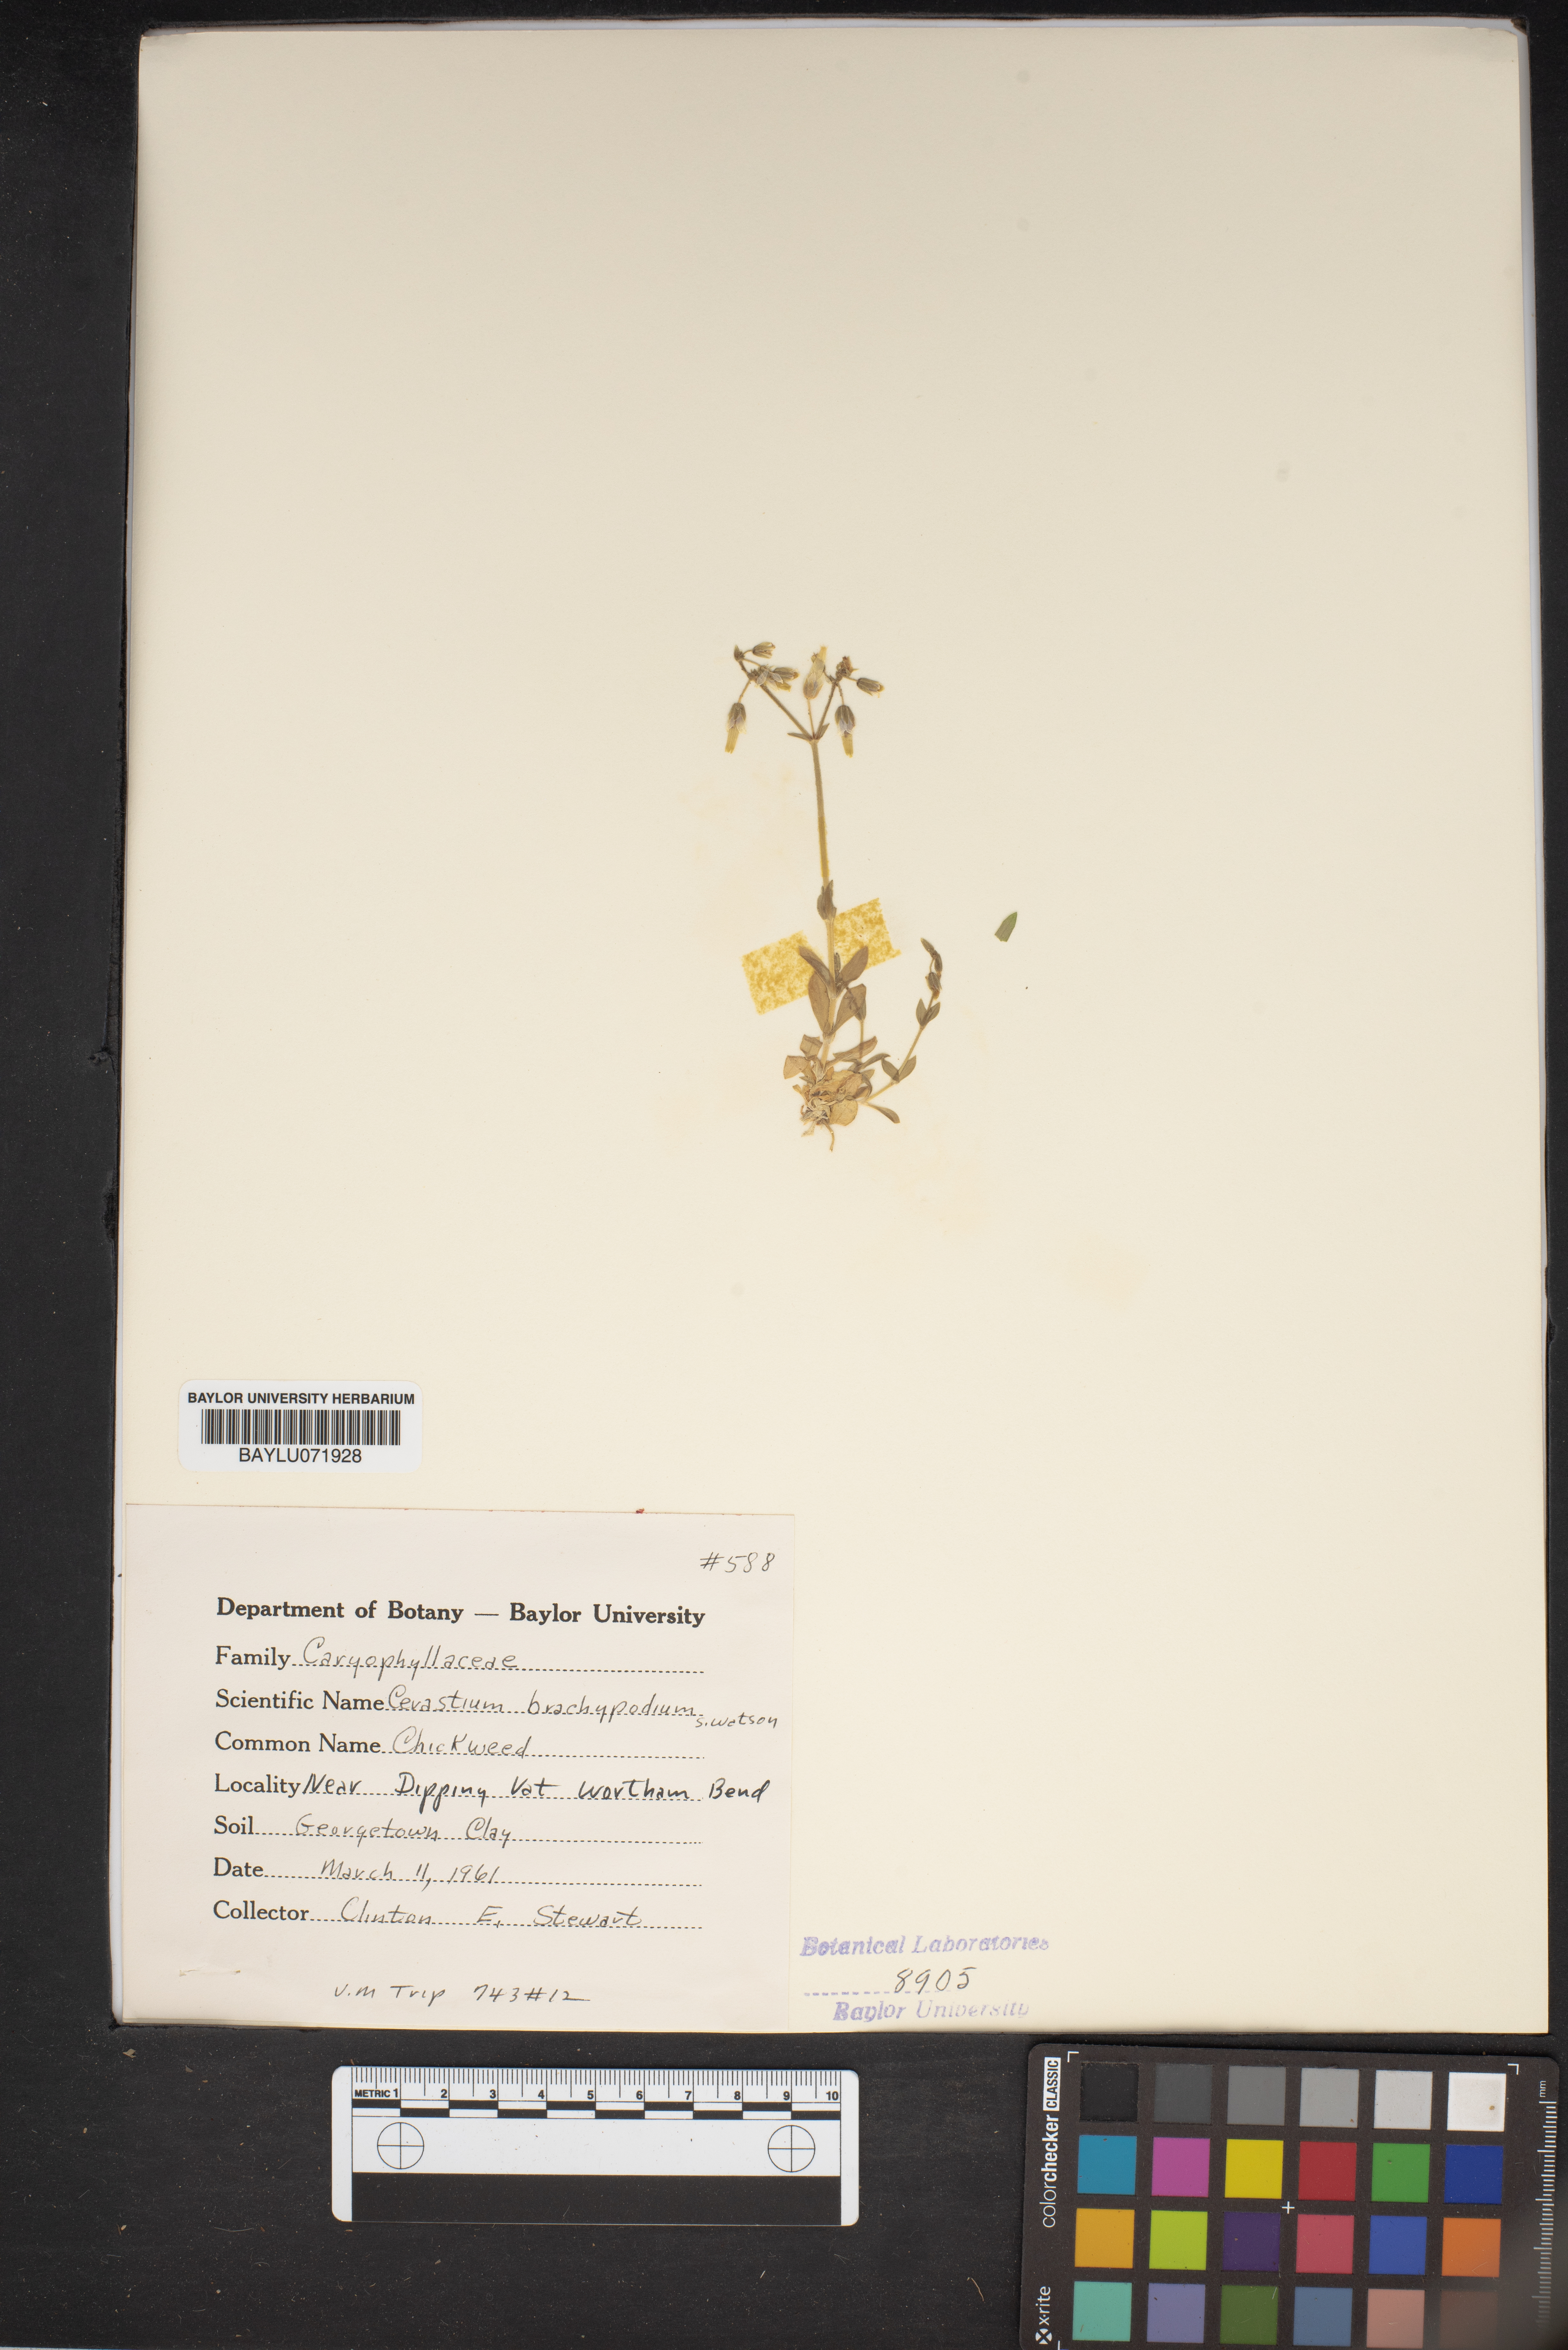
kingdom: Plantae
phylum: Tracheophyta
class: Magnoliopsida
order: Caryophyllales
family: Caryophyllaceae
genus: Cerastium
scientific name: Cerastium brachypetalum
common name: Grey mouse-ear
